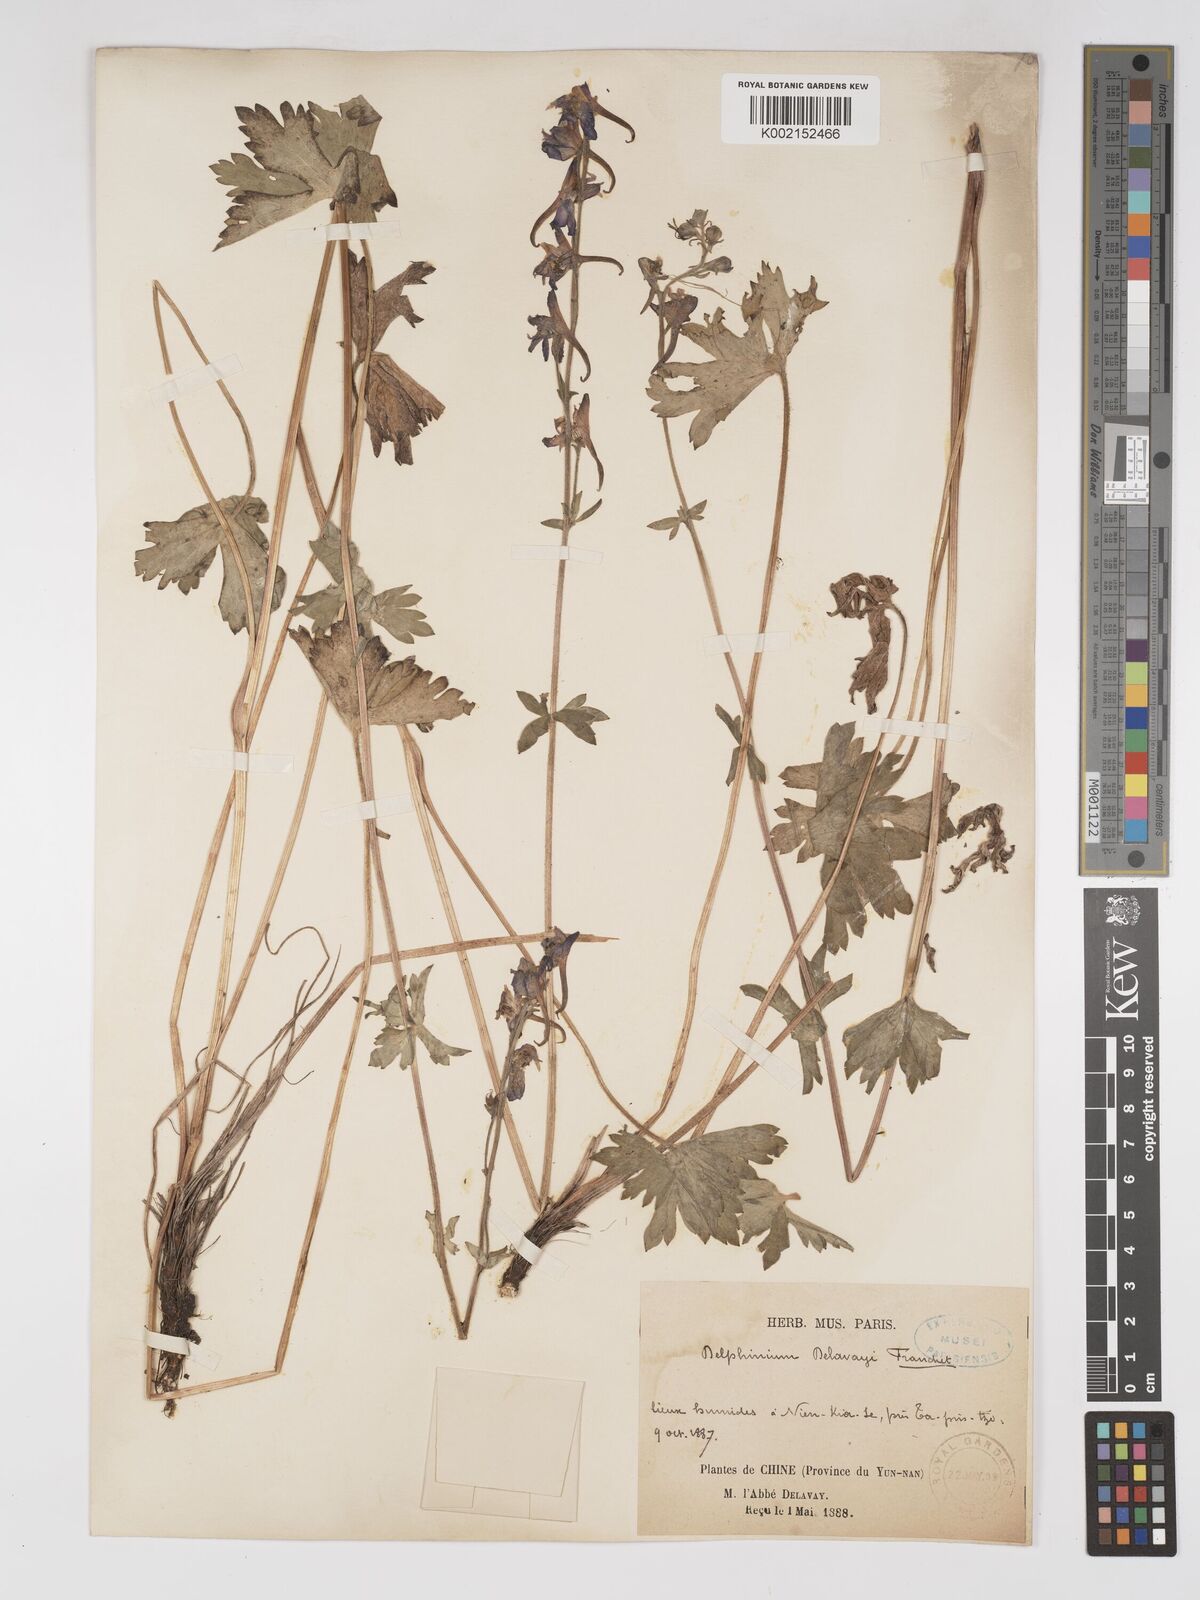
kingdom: Plantae
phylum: Tracheophyta
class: Magnoliopsida
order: Ranunculales
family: Ranunculaceae
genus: Delphinium
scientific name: Delphinium delavayi
